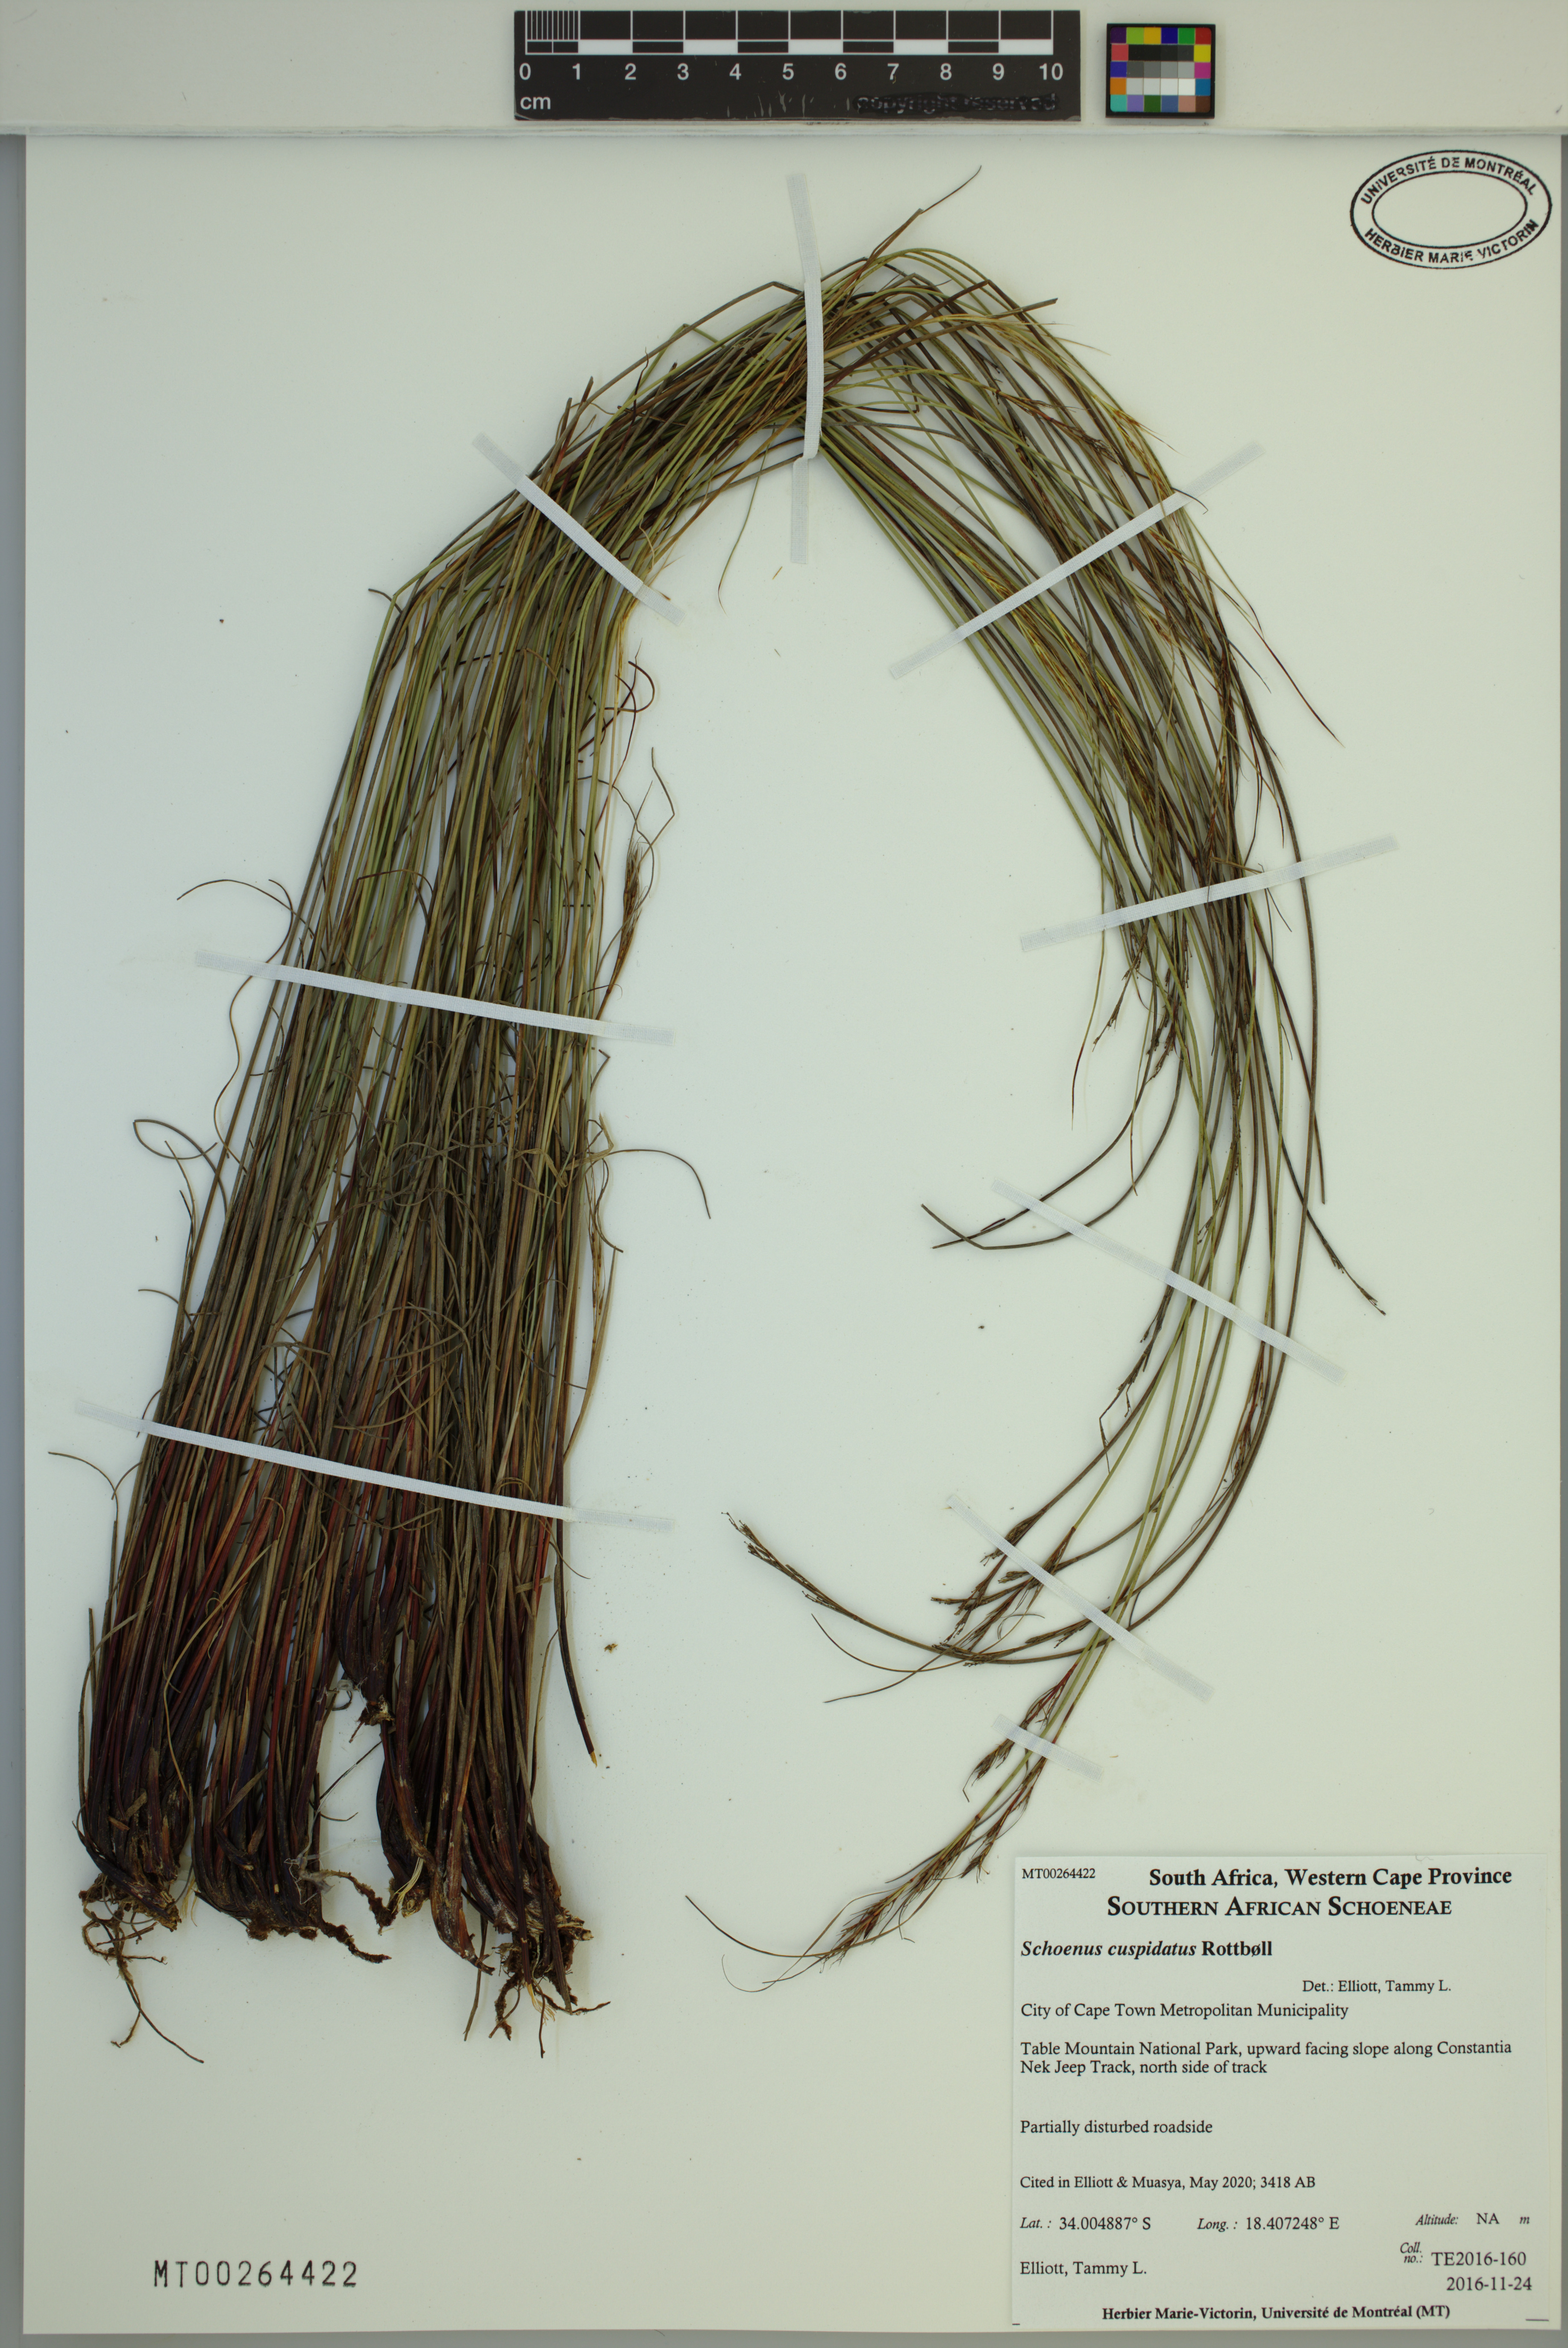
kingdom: Plantae
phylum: Tracheophyta
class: Liliopsida
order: Poales
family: Cyperaceae
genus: Schoenus
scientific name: Schoenus cuspidatus
